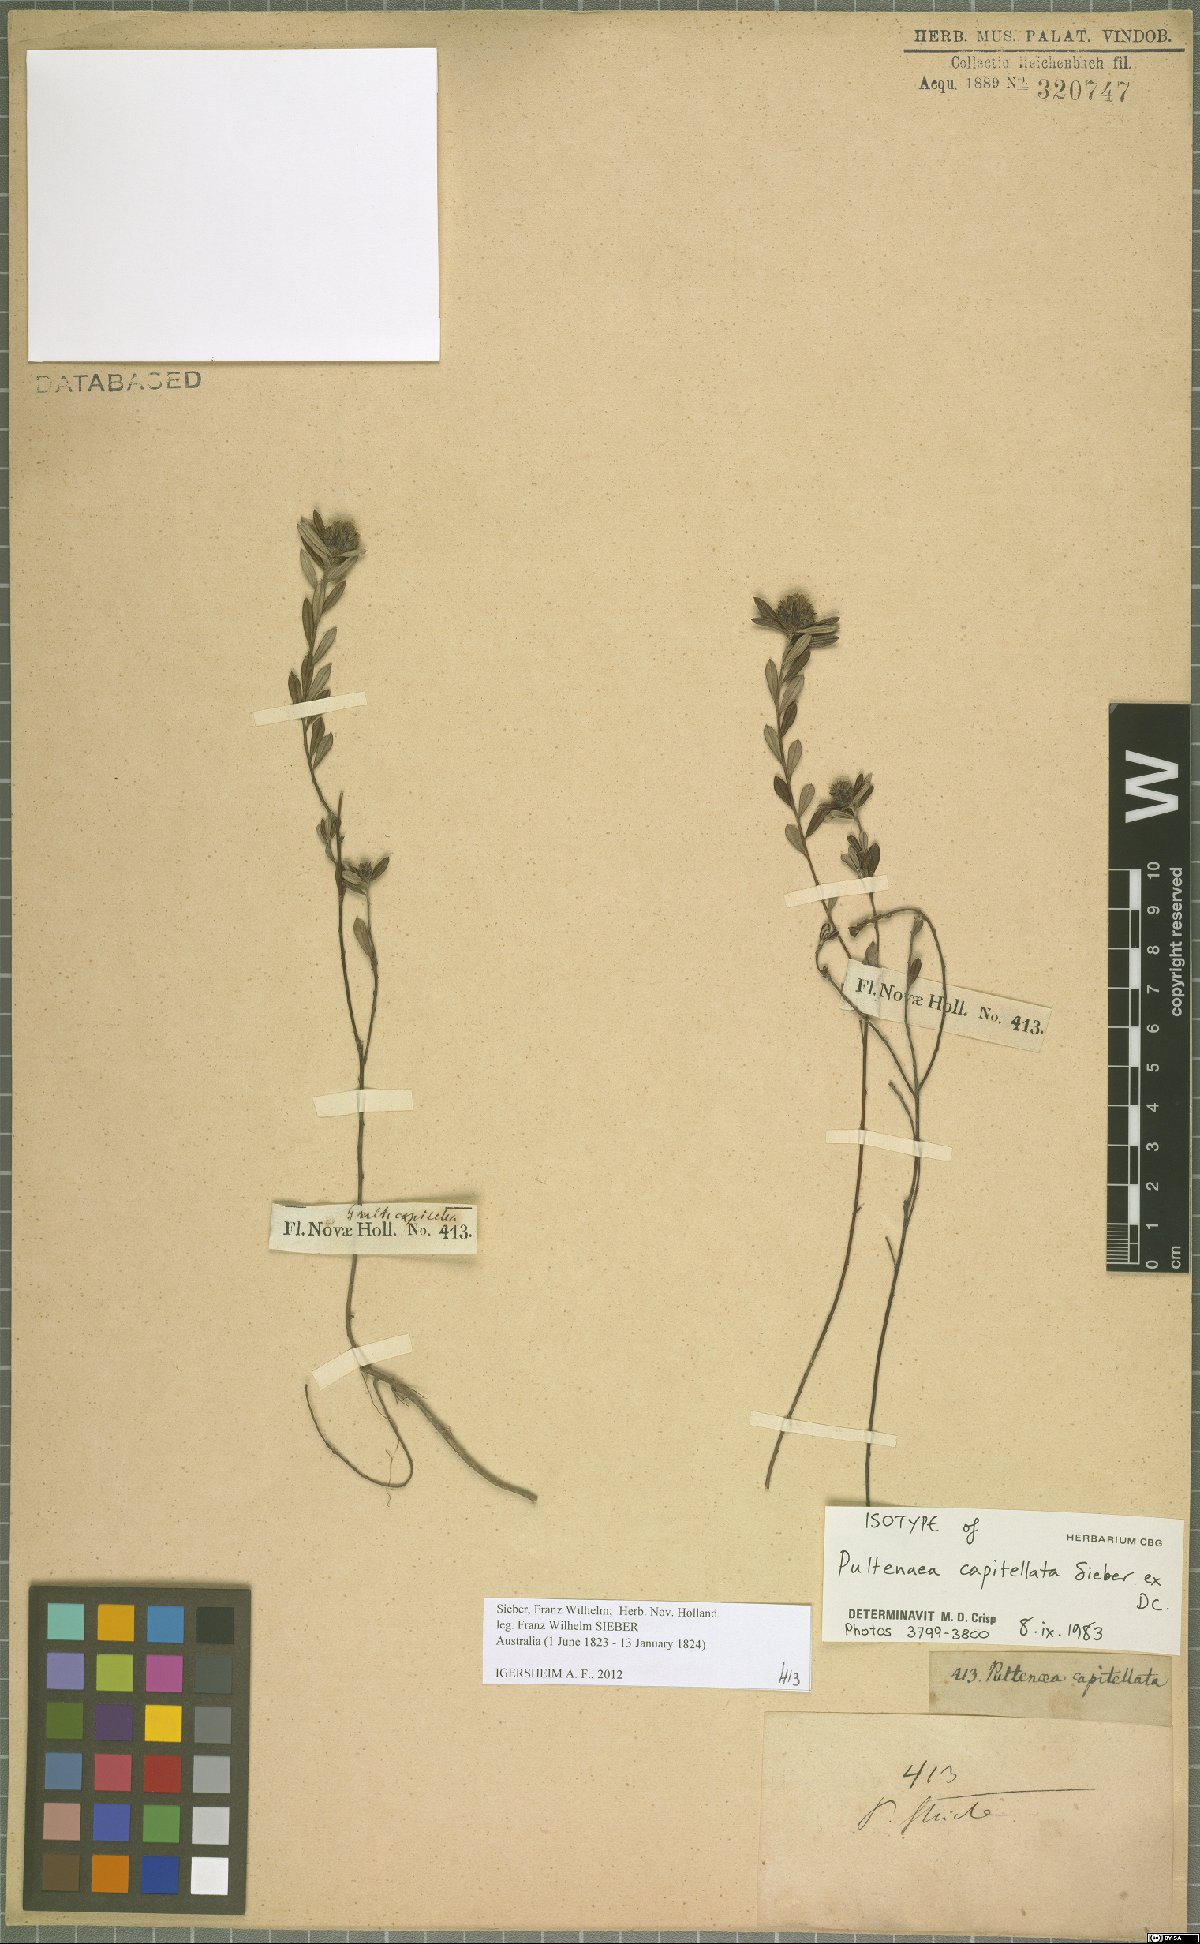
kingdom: Plantae
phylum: Tracheophyta
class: Magnoliopsida
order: Fabales
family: Fabaceae
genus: Pultenaea
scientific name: Pultenaea capitellata
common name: Hard-head bush-pea
